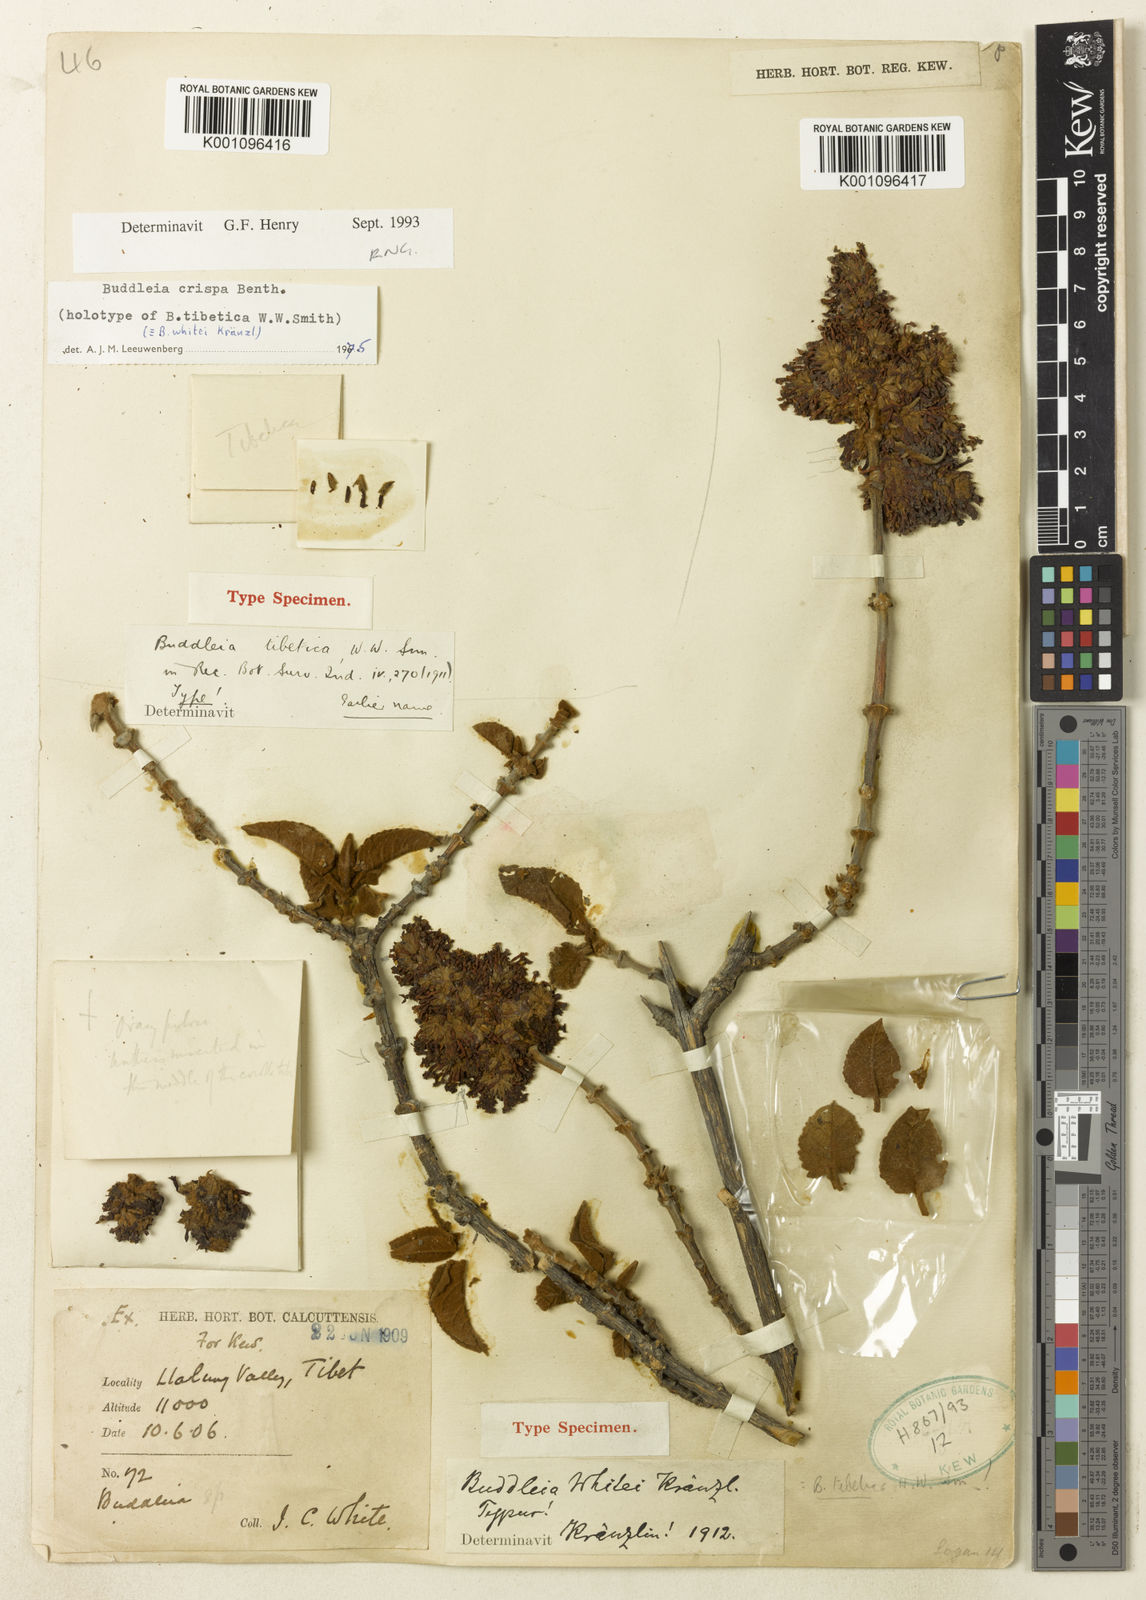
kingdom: Plantae
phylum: Tracheophyta
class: Magnoliopsida
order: Lamiales
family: Scrophulariaceae
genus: Buddleja
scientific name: Buddleja crispa
